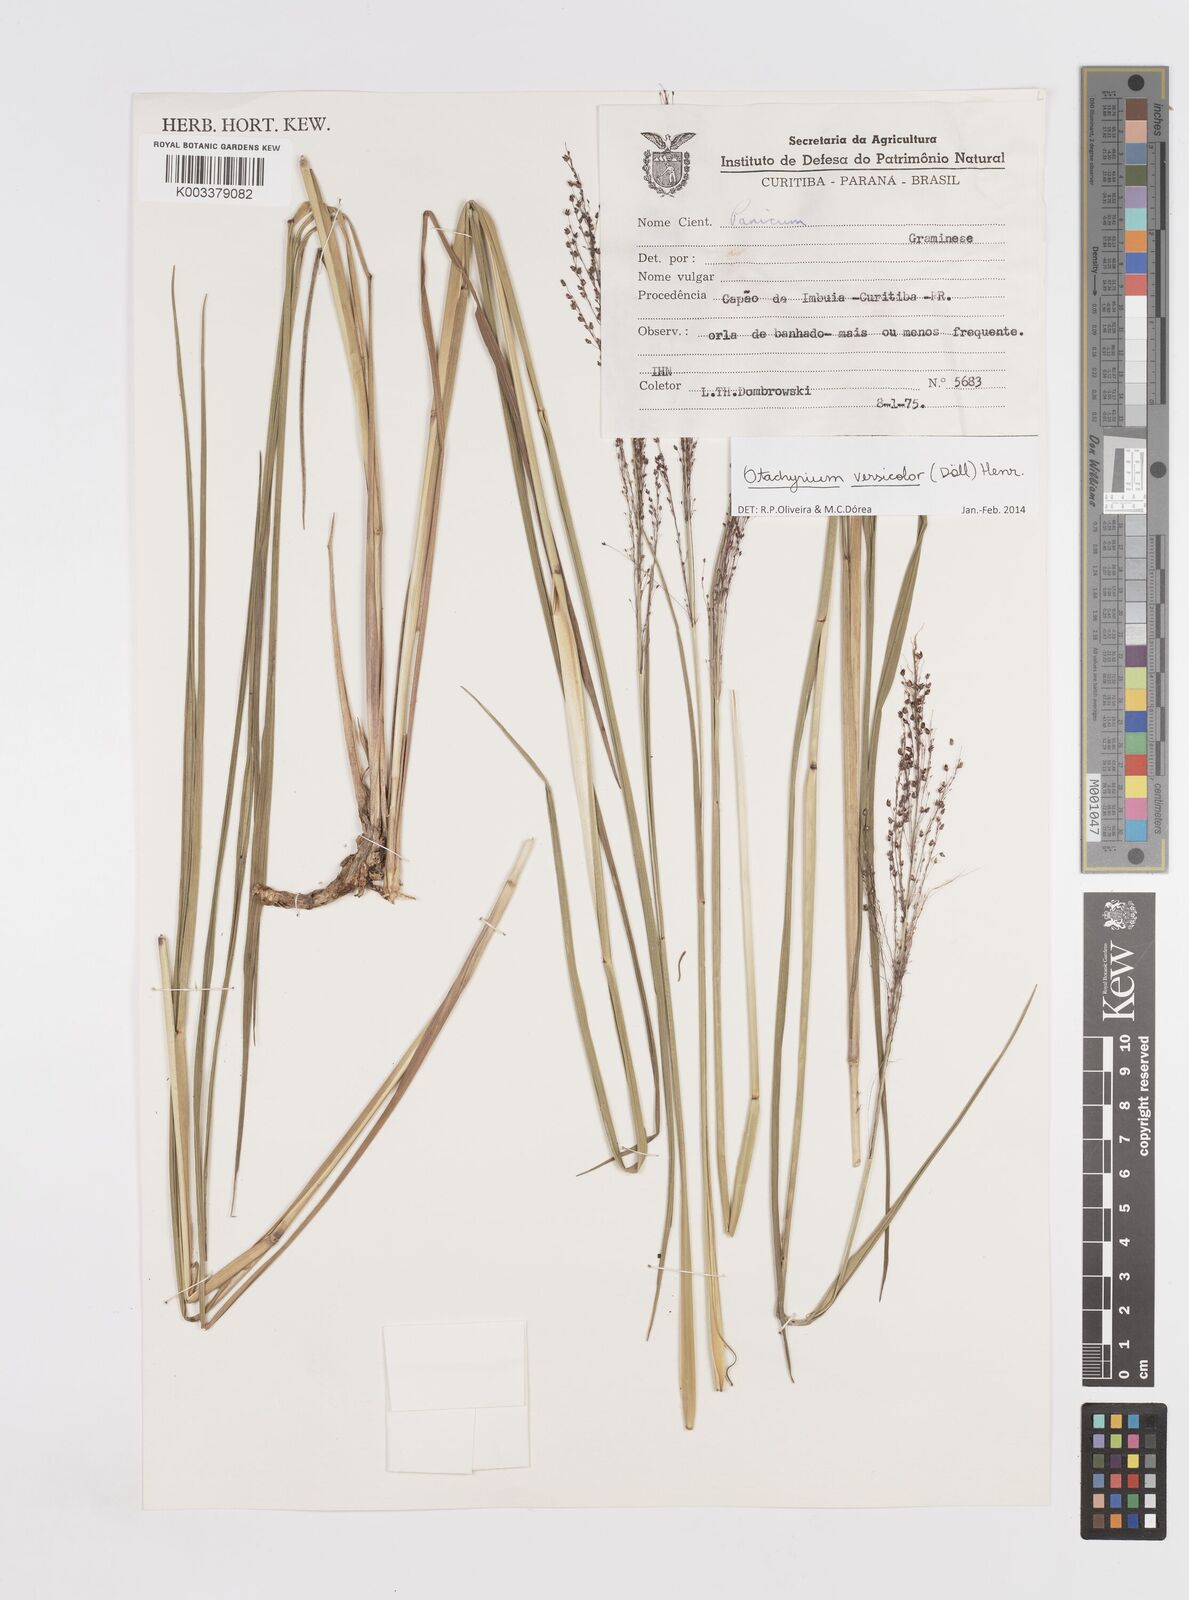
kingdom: Plantae
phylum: Tracheophyta
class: Liliopsida
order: Poales
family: Poaceae
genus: Otachyrium
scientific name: Otachyrium versicolor
